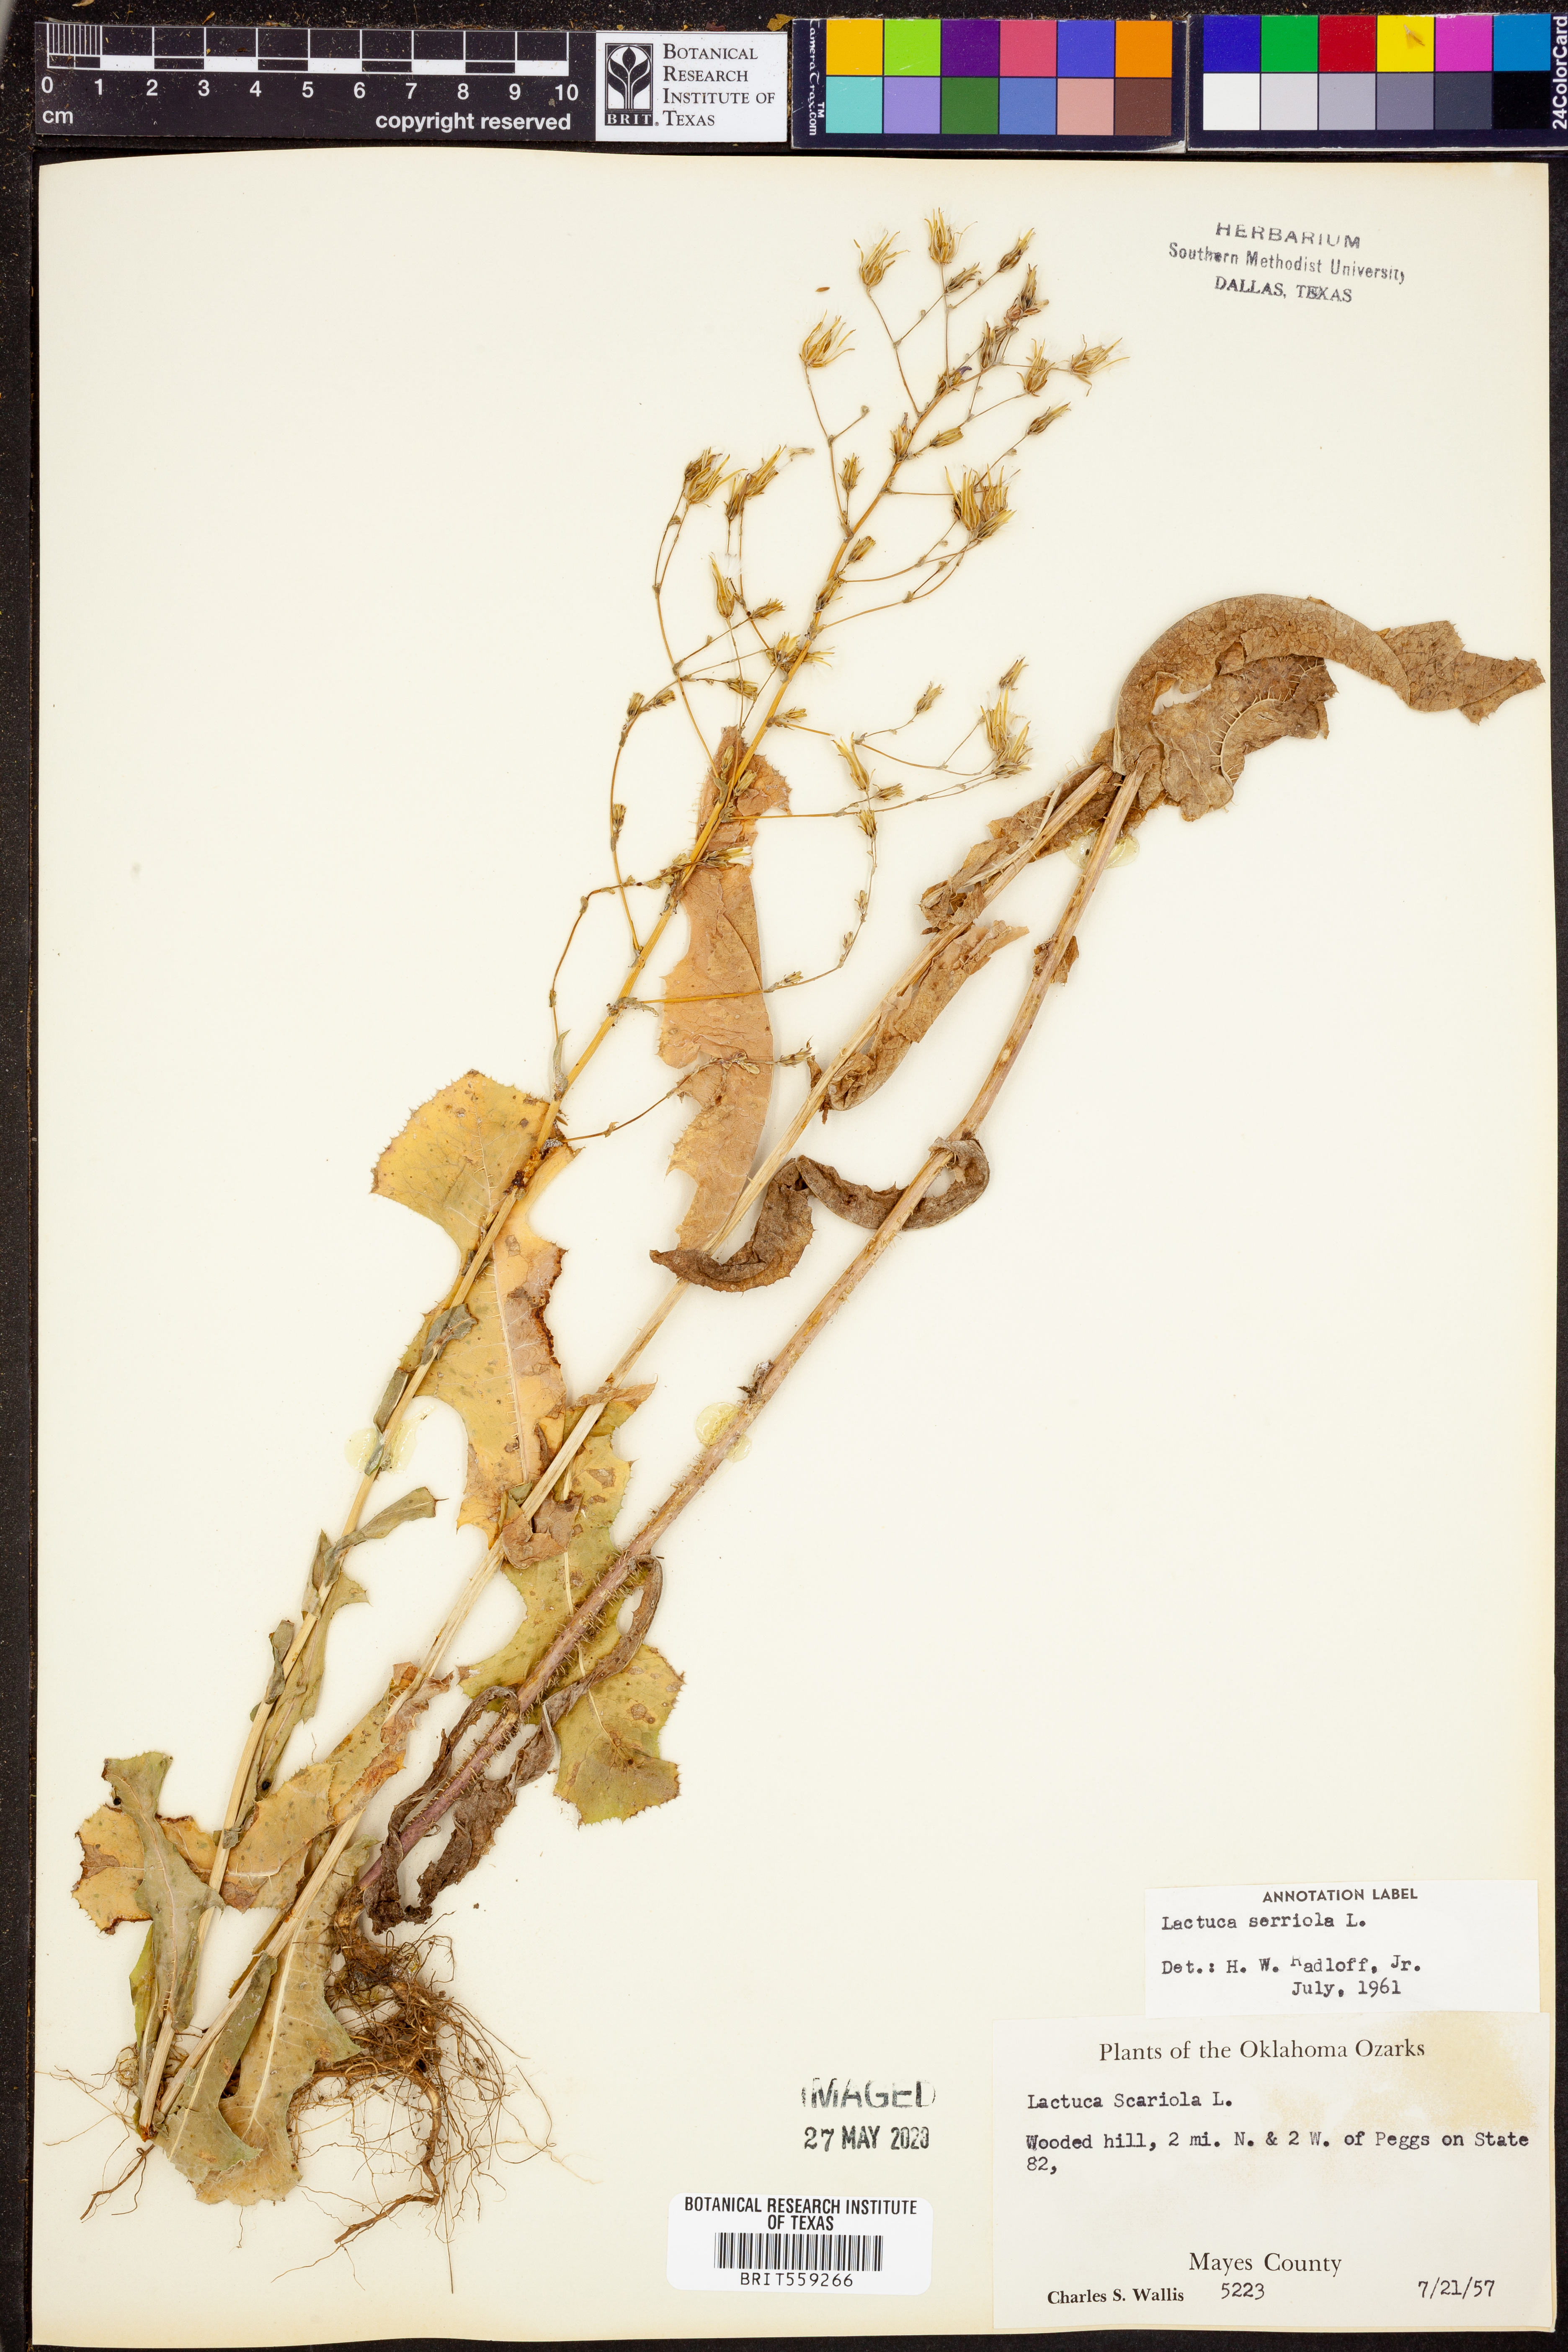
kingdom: Plantae
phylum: Tracheophyta
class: Magnoliopsida
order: Asterales
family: Asteraceae
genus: Lactuca
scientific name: Lactuca serriola
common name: Prickly lettuce
